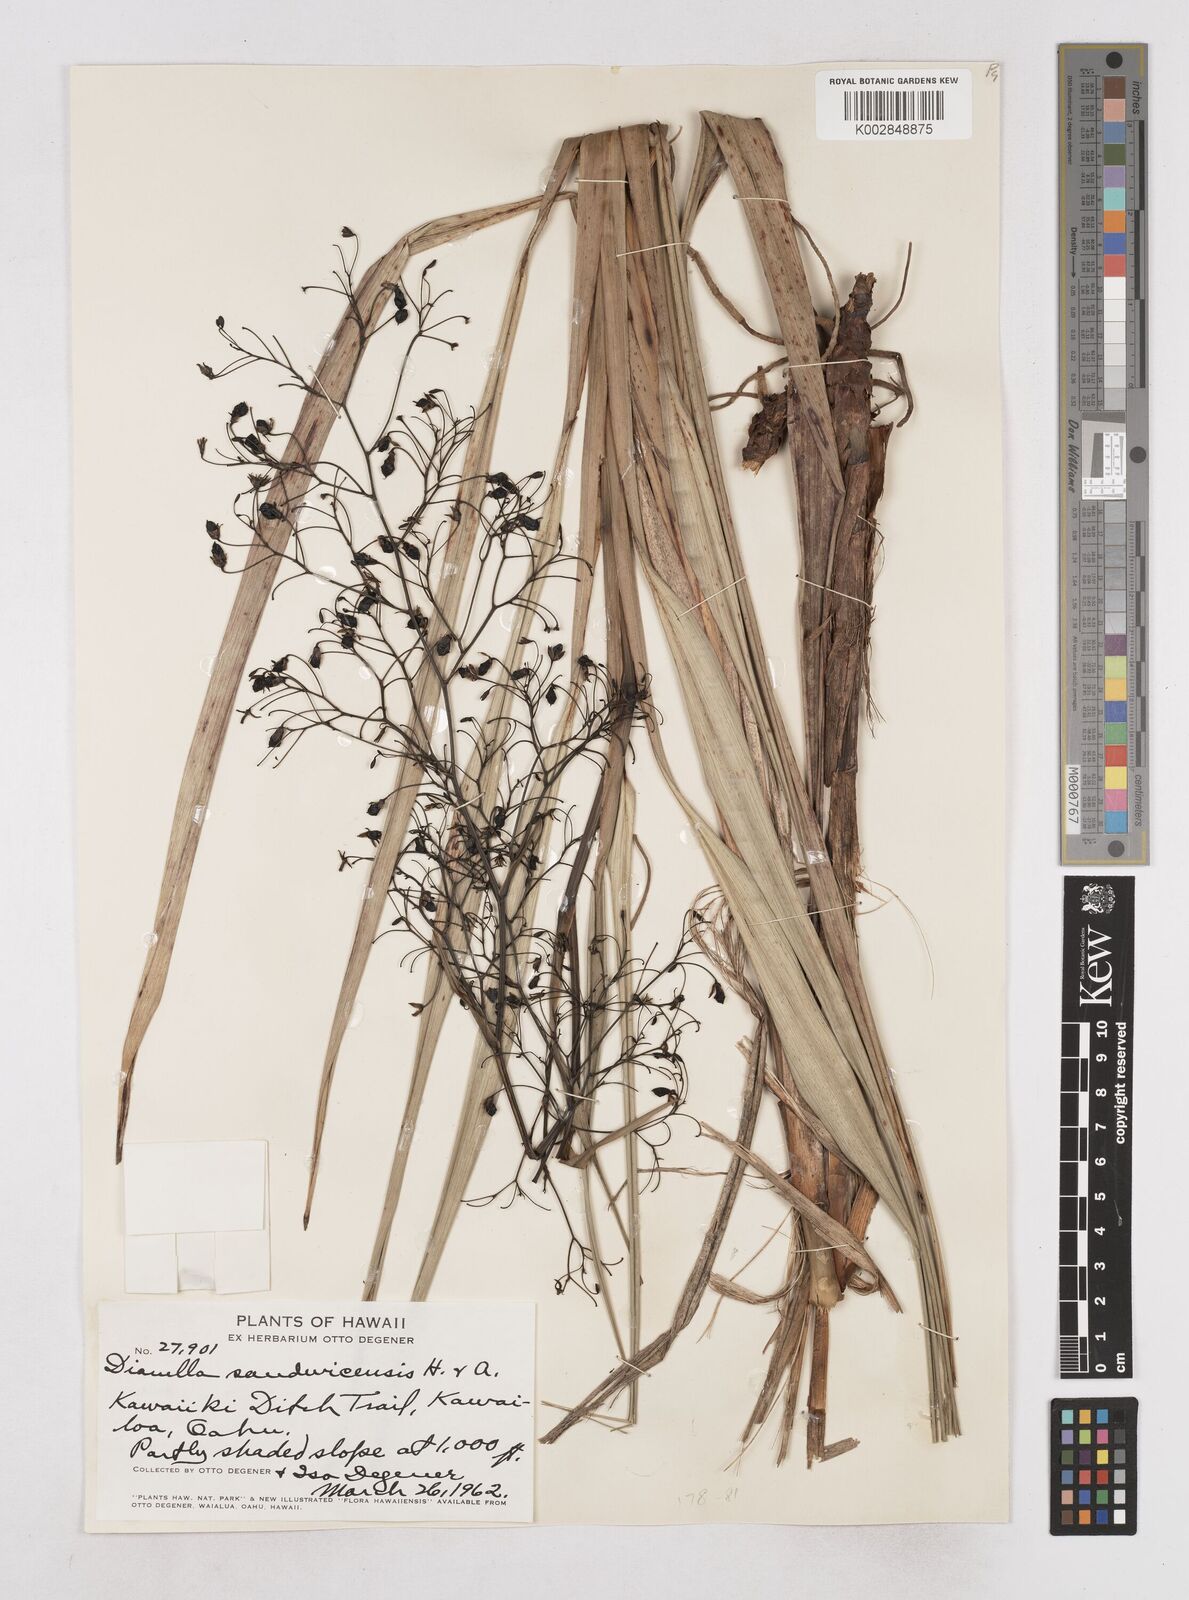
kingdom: Plantae
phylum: Tracheophyta
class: Liliopsida
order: Asparagales
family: Asphodelaceae
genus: Dianella
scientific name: Dianella sandwicensis
